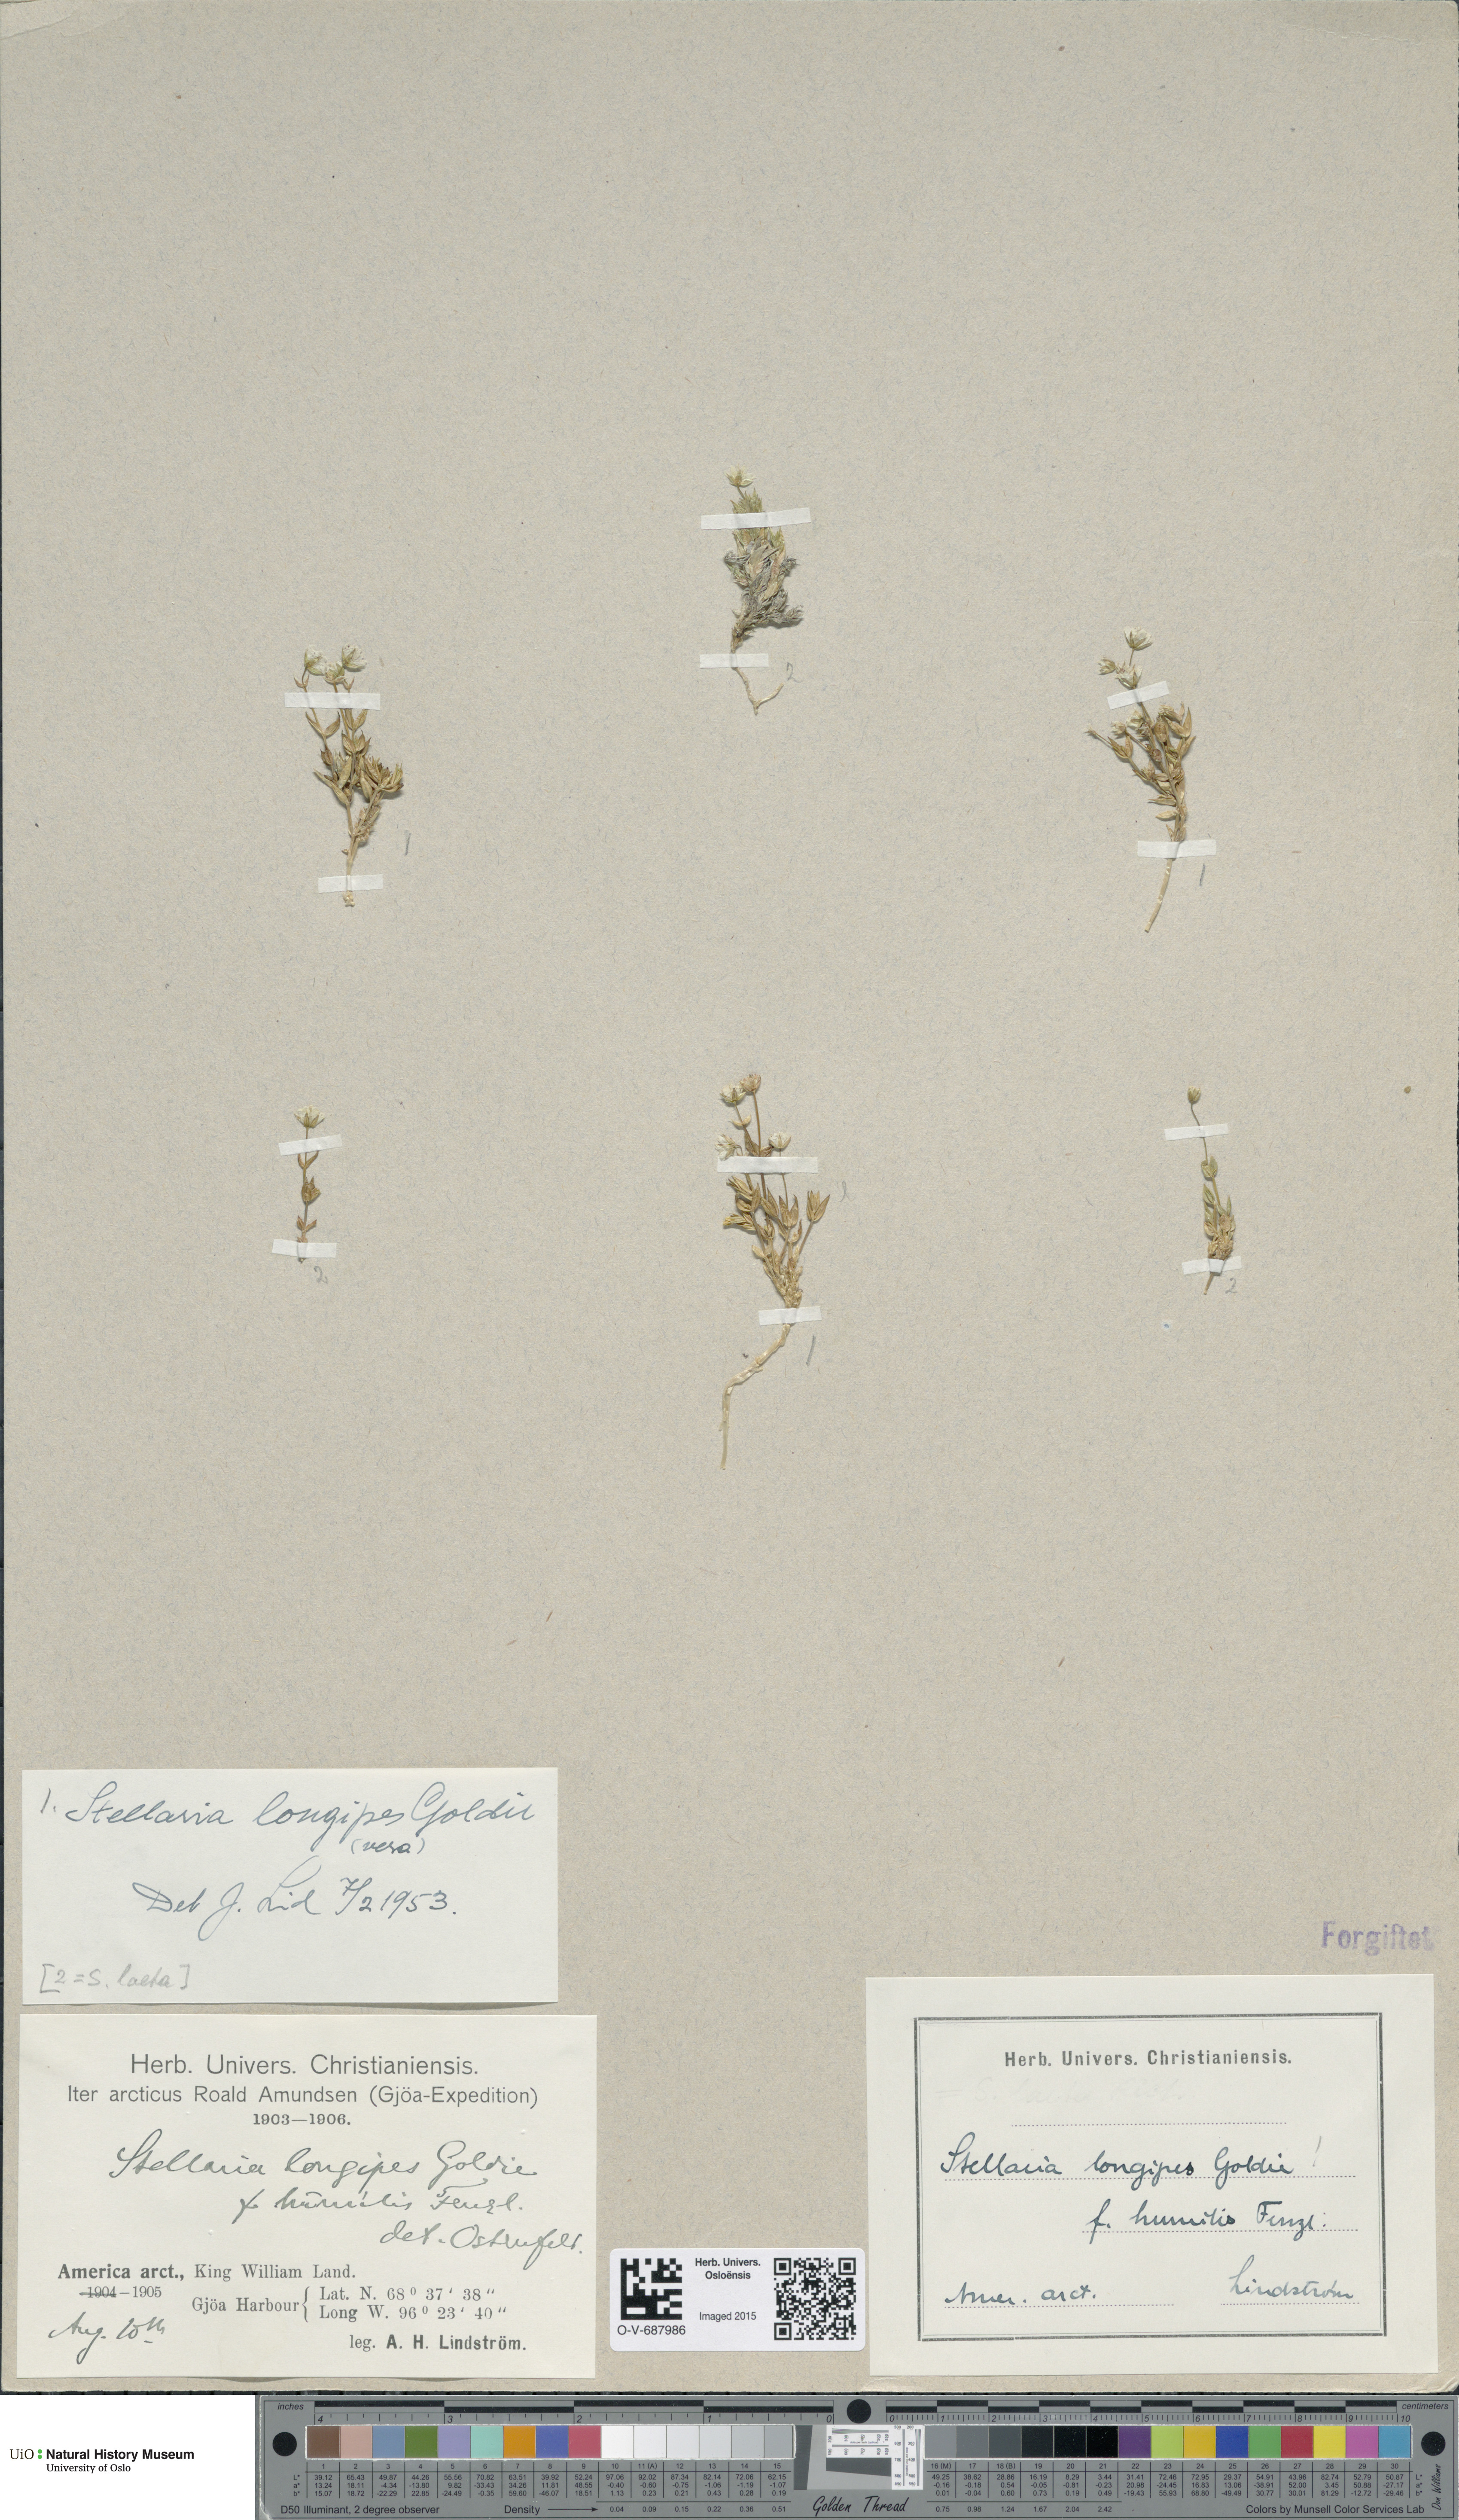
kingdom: Plantae
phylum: Tracheophyta
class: Magnoliopsida
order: Caryophyllales
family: Caryophyllaceae
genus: Stellaria
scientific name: Stellaria longipes
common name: Goldie's starwort
